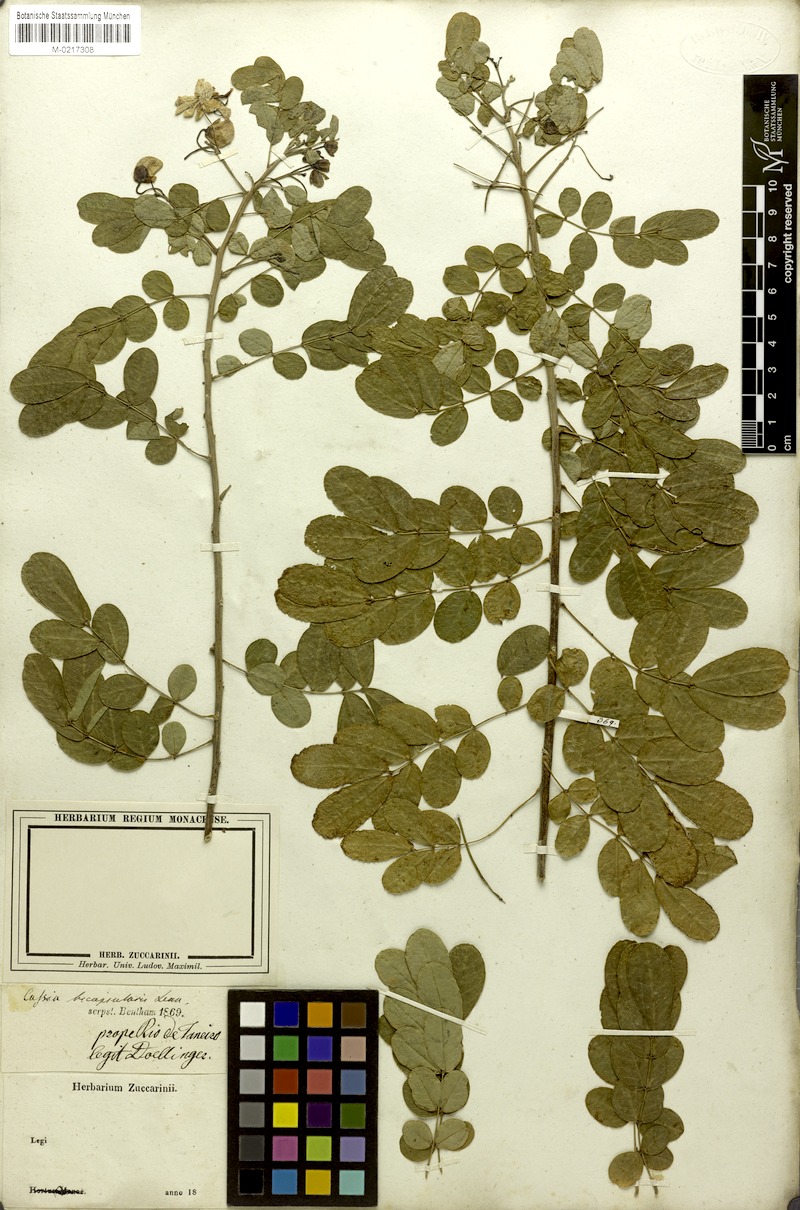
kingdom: Plantae
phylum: Tracheophyta
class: Magnoliopsida
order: Fabales
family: Fabaceae
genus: Senna
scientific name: Senna bicapsularis
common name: Christmasbush
